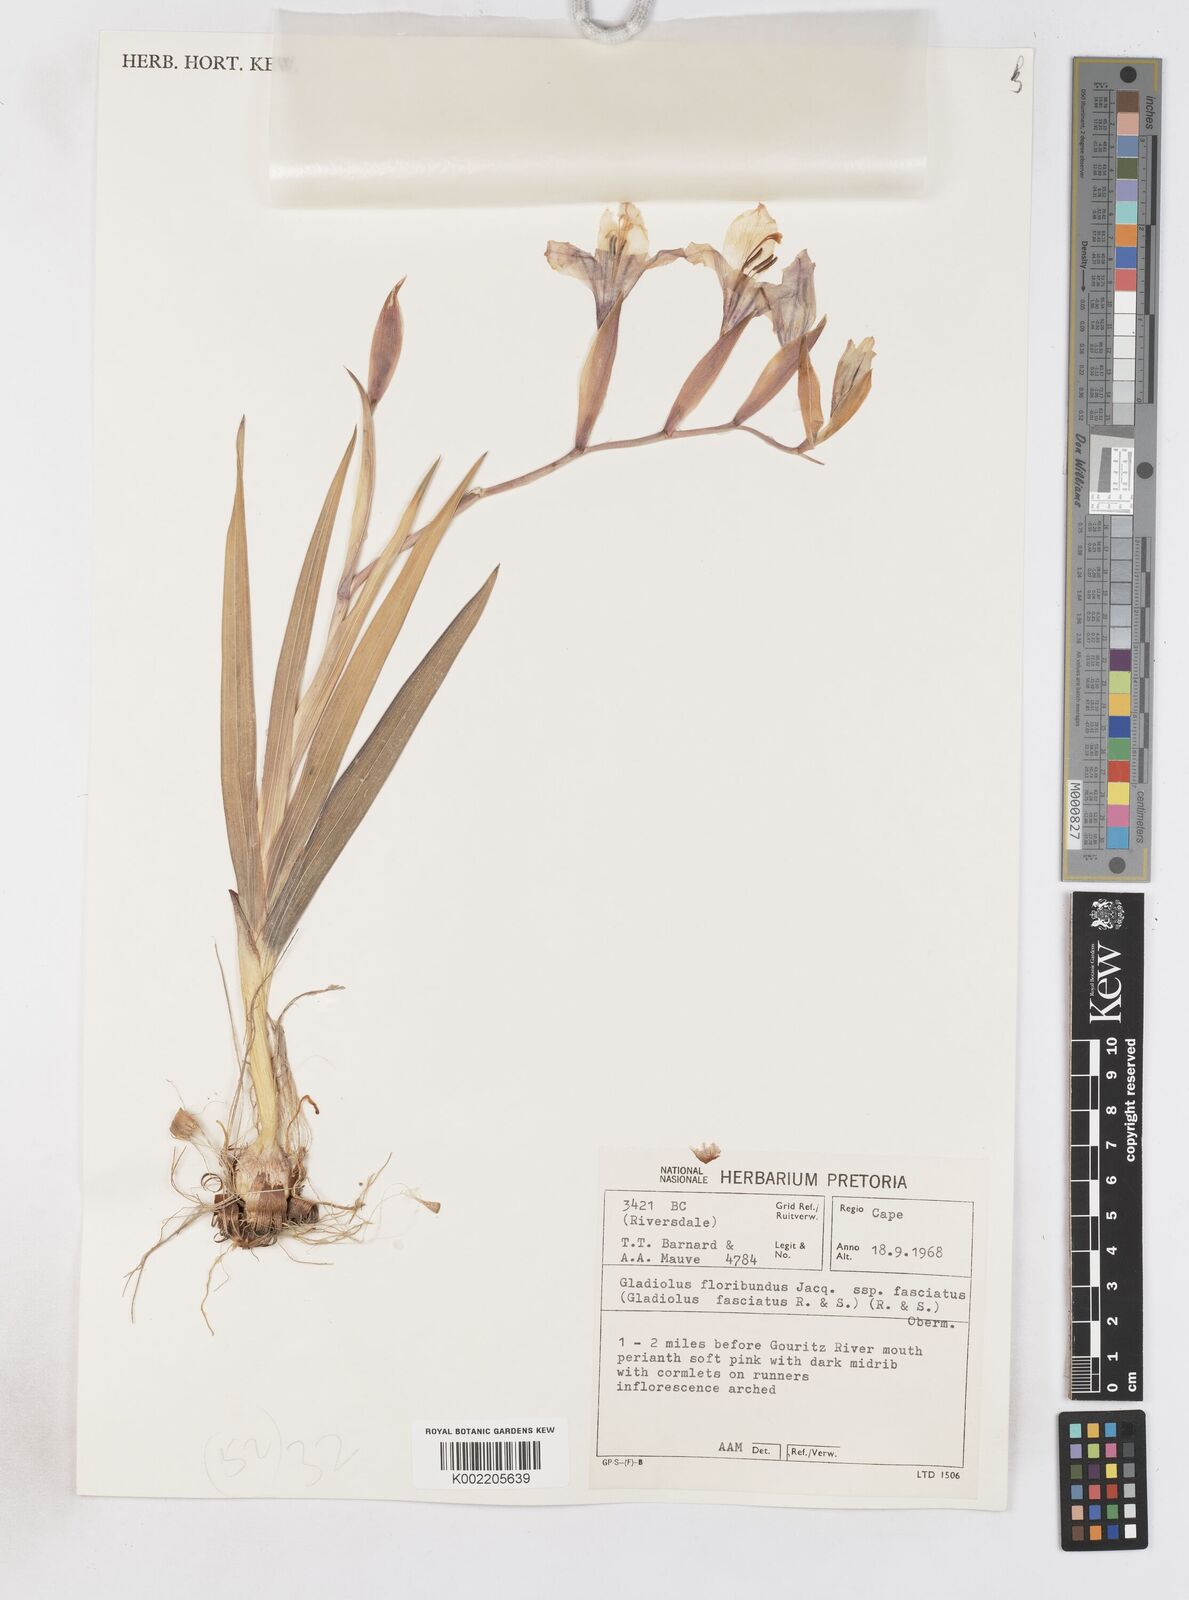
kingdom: Plantae
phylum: Tracheophyta
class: Liliopsida
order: Asparagales
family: Iridaceae
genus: Gladiolus
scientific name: Gladiolus grandiflorus
